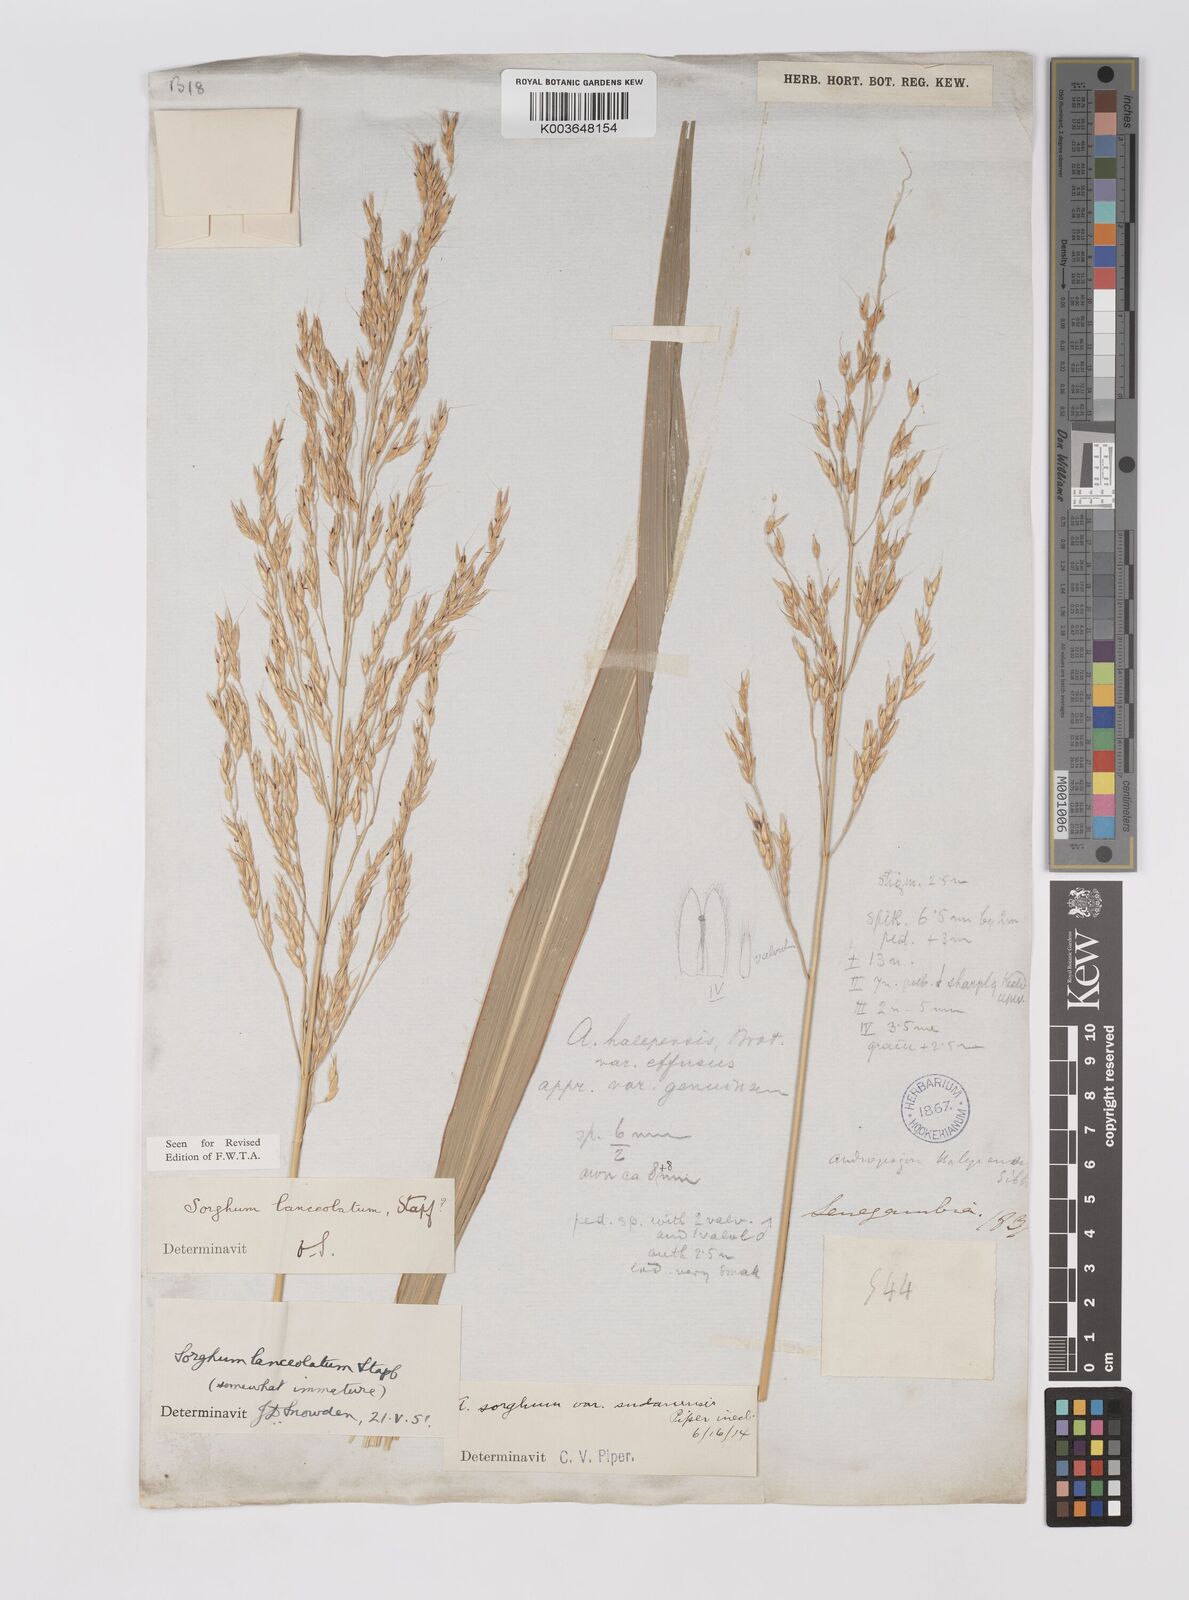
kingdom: Plantae
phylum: Tracheophyta
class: Liliopsida
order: Poales
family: Poaceae
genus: Sorghum
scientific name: Sorghum arundinaceum
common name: Sorghum
